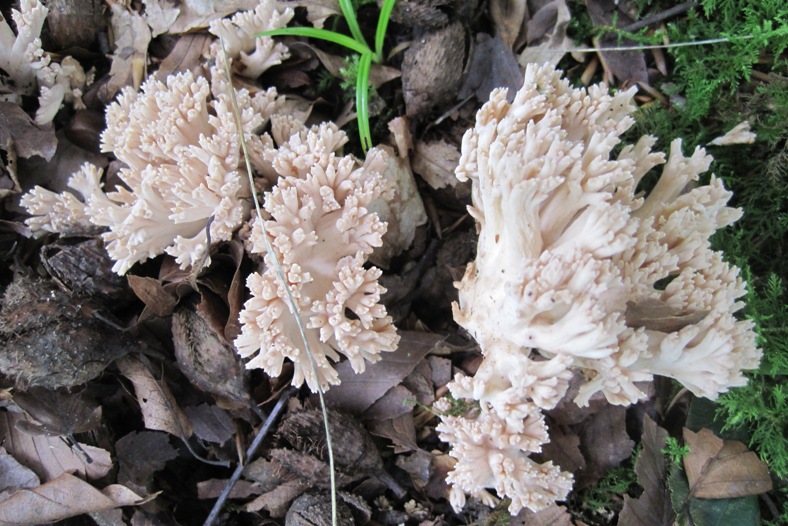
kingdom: Fungi
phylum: Basidiomycota
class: Agaricomycetes
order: Gomphales
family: Gomphaceae
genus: Ramaria
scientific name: Ramaria
